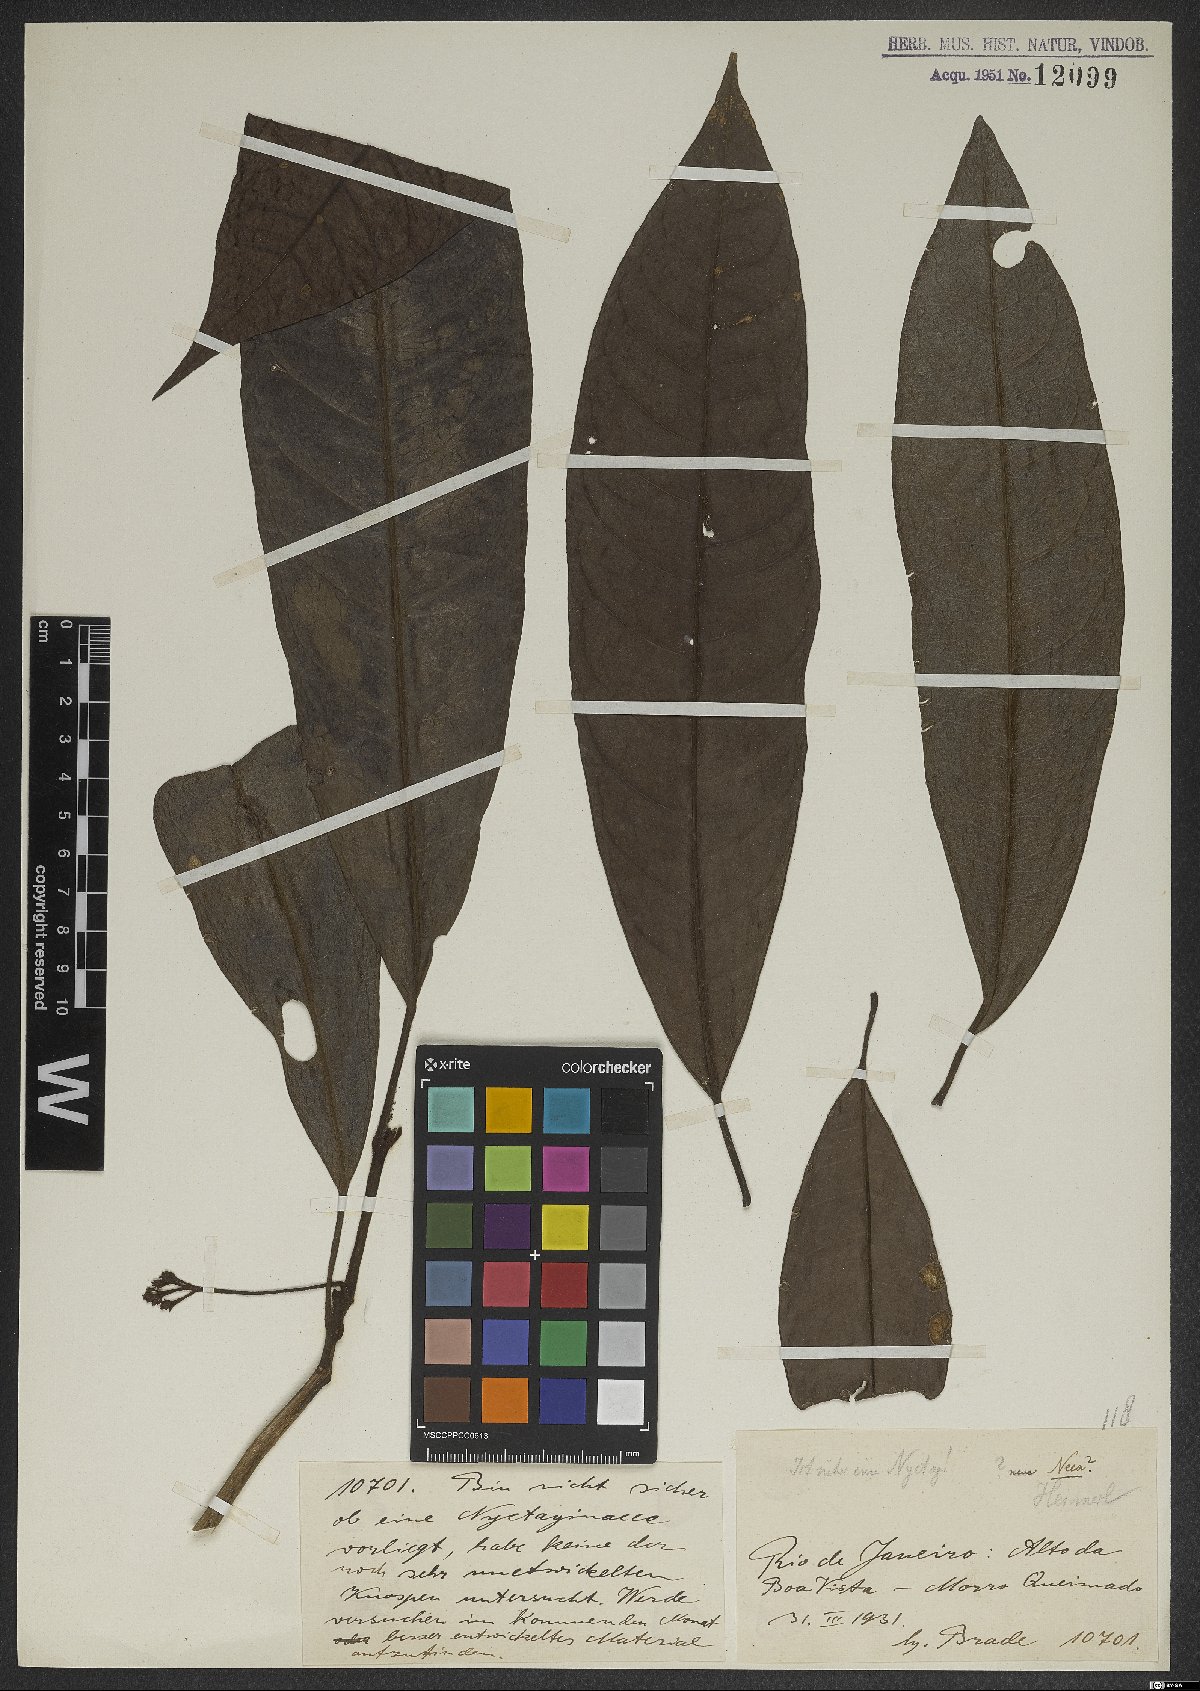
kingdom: Plantae
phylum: Tracheophyta
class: Magnoliopsida
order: Caryophyllales
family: Nyctaginaceae
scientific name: Nyctaginaceae
